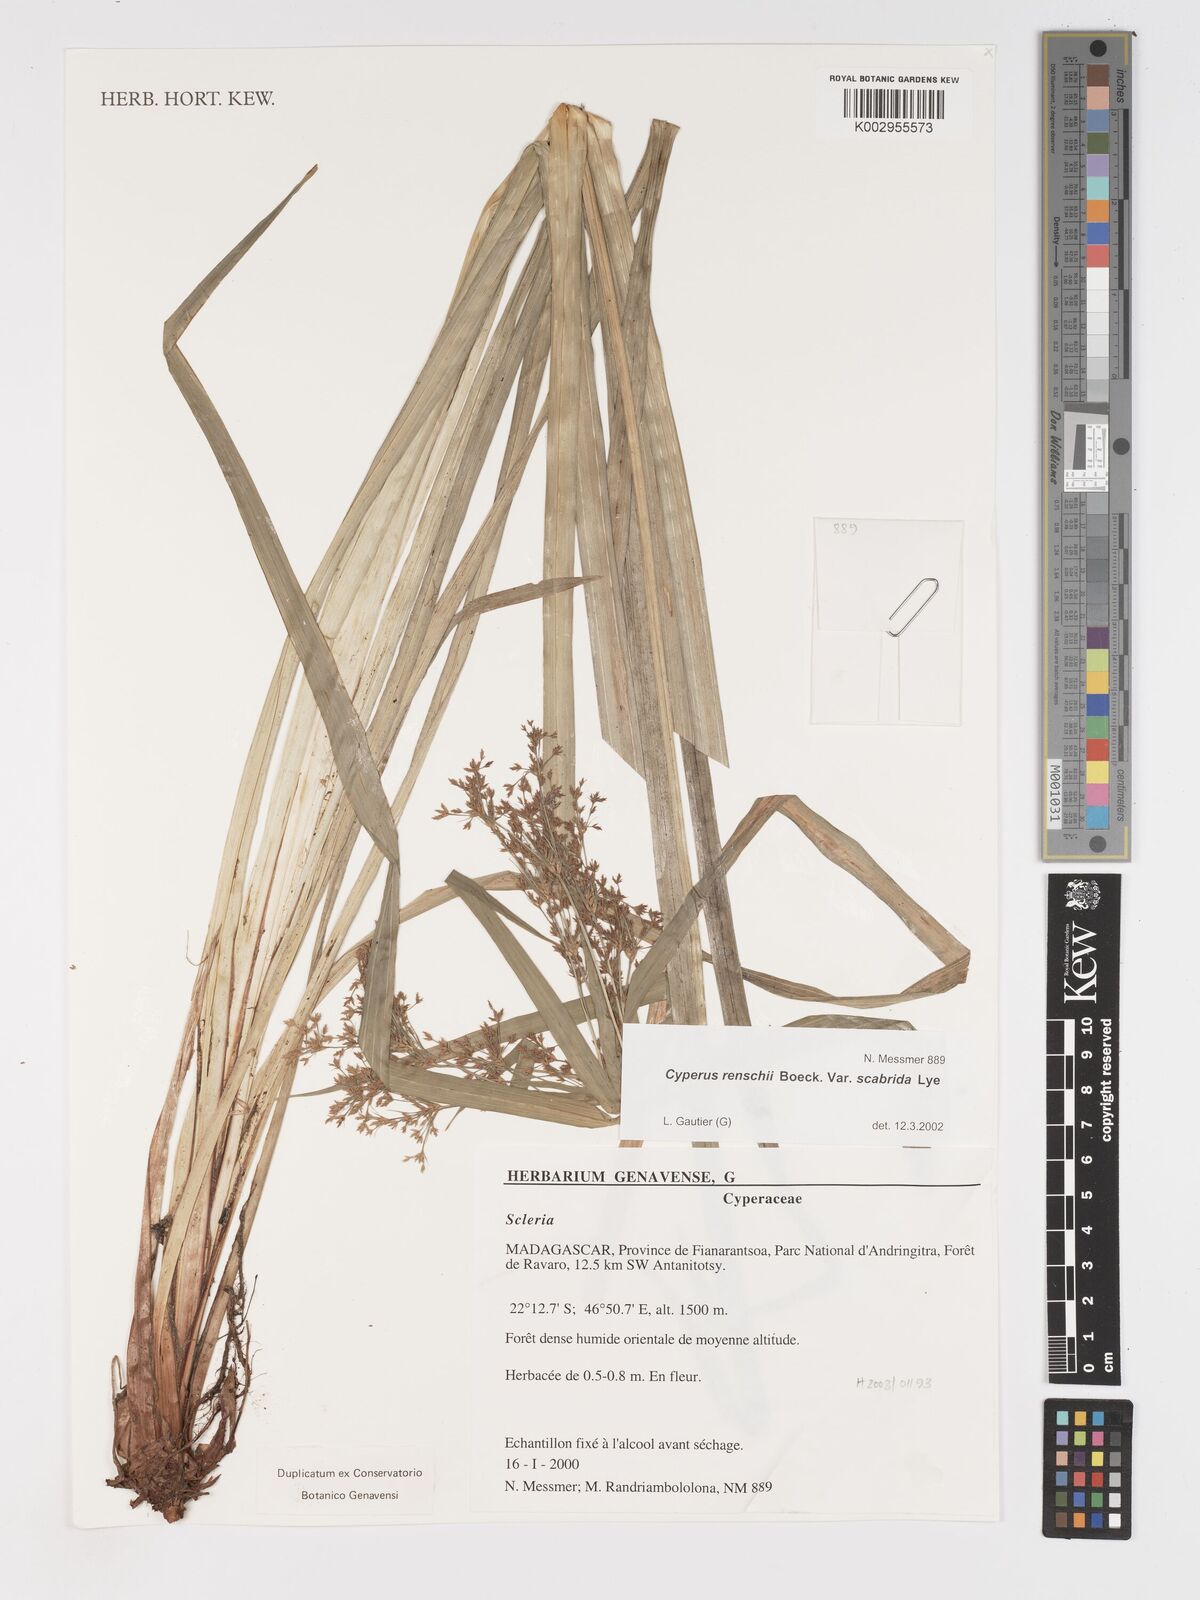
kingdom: Plantae
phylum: Tracheophyta
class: Liliopsida
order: Poales
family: Cyperaceae
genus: Cyperus
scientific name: Cyperus renschii
